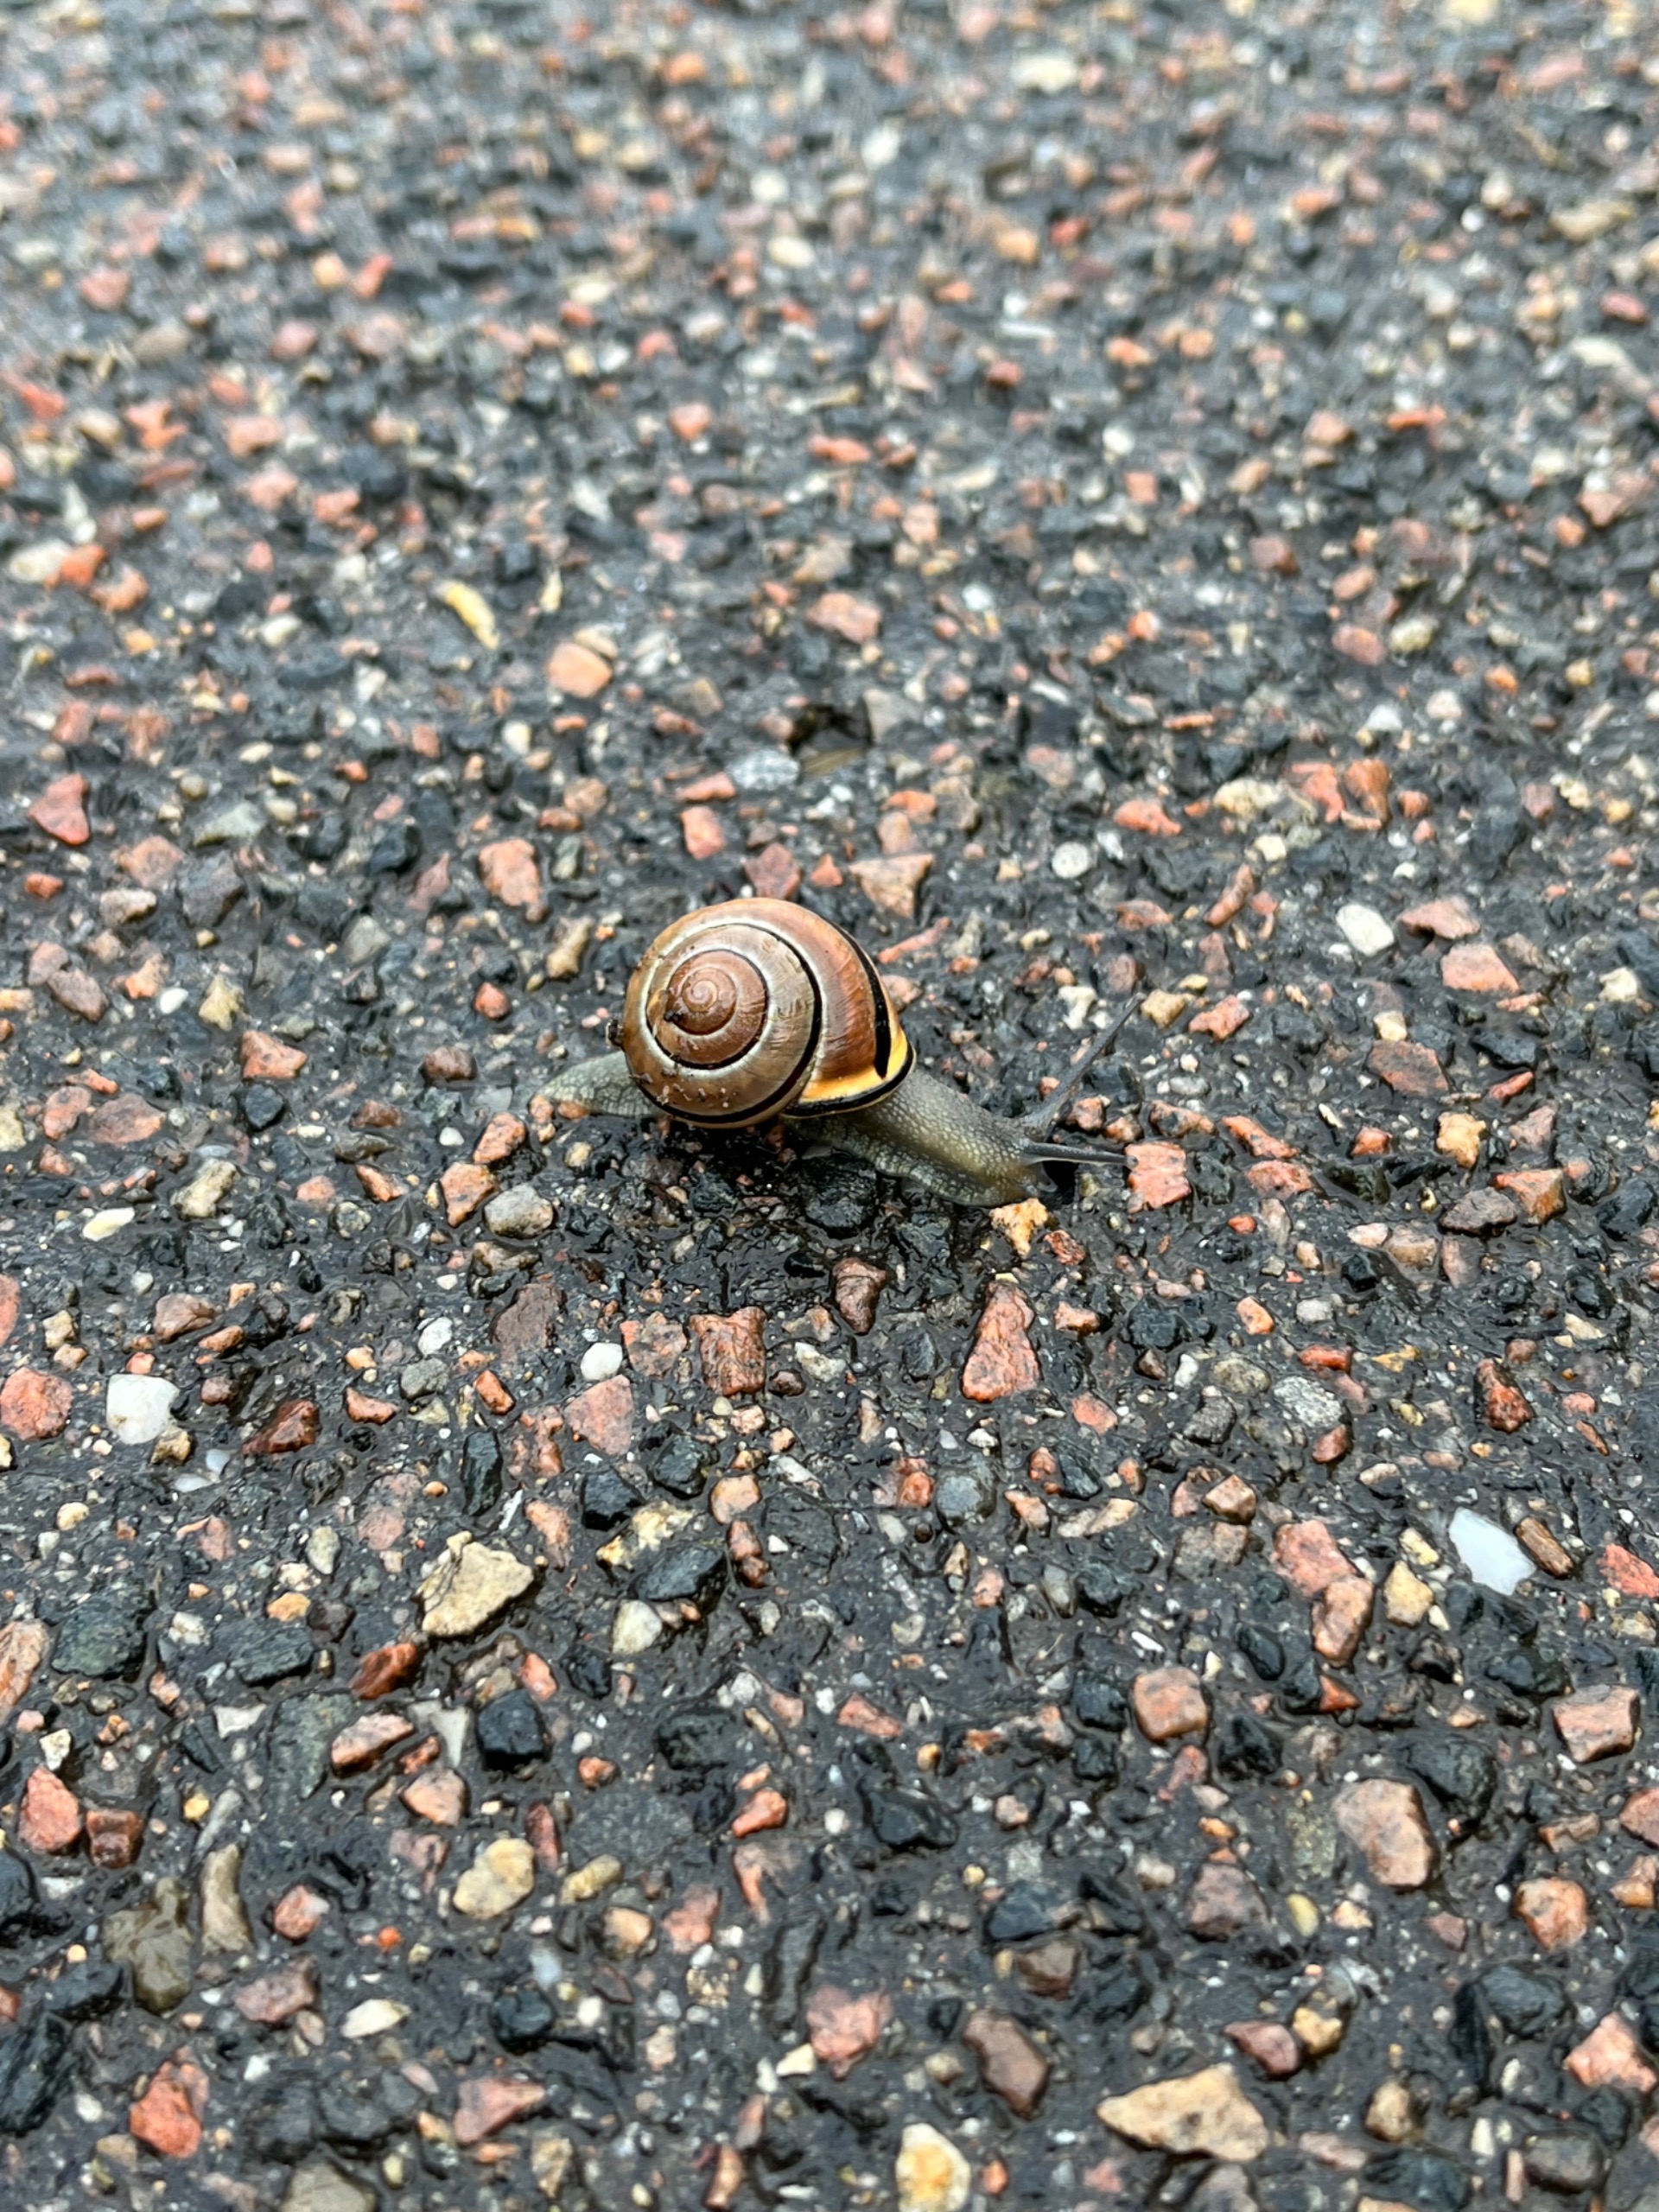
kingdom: Animalia
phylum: Mollusca
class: Gastropoda
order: Stylommatophora
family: Helicidae
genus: Cepaea
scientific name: Cepaea nemoralis
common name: Lundsnegl
